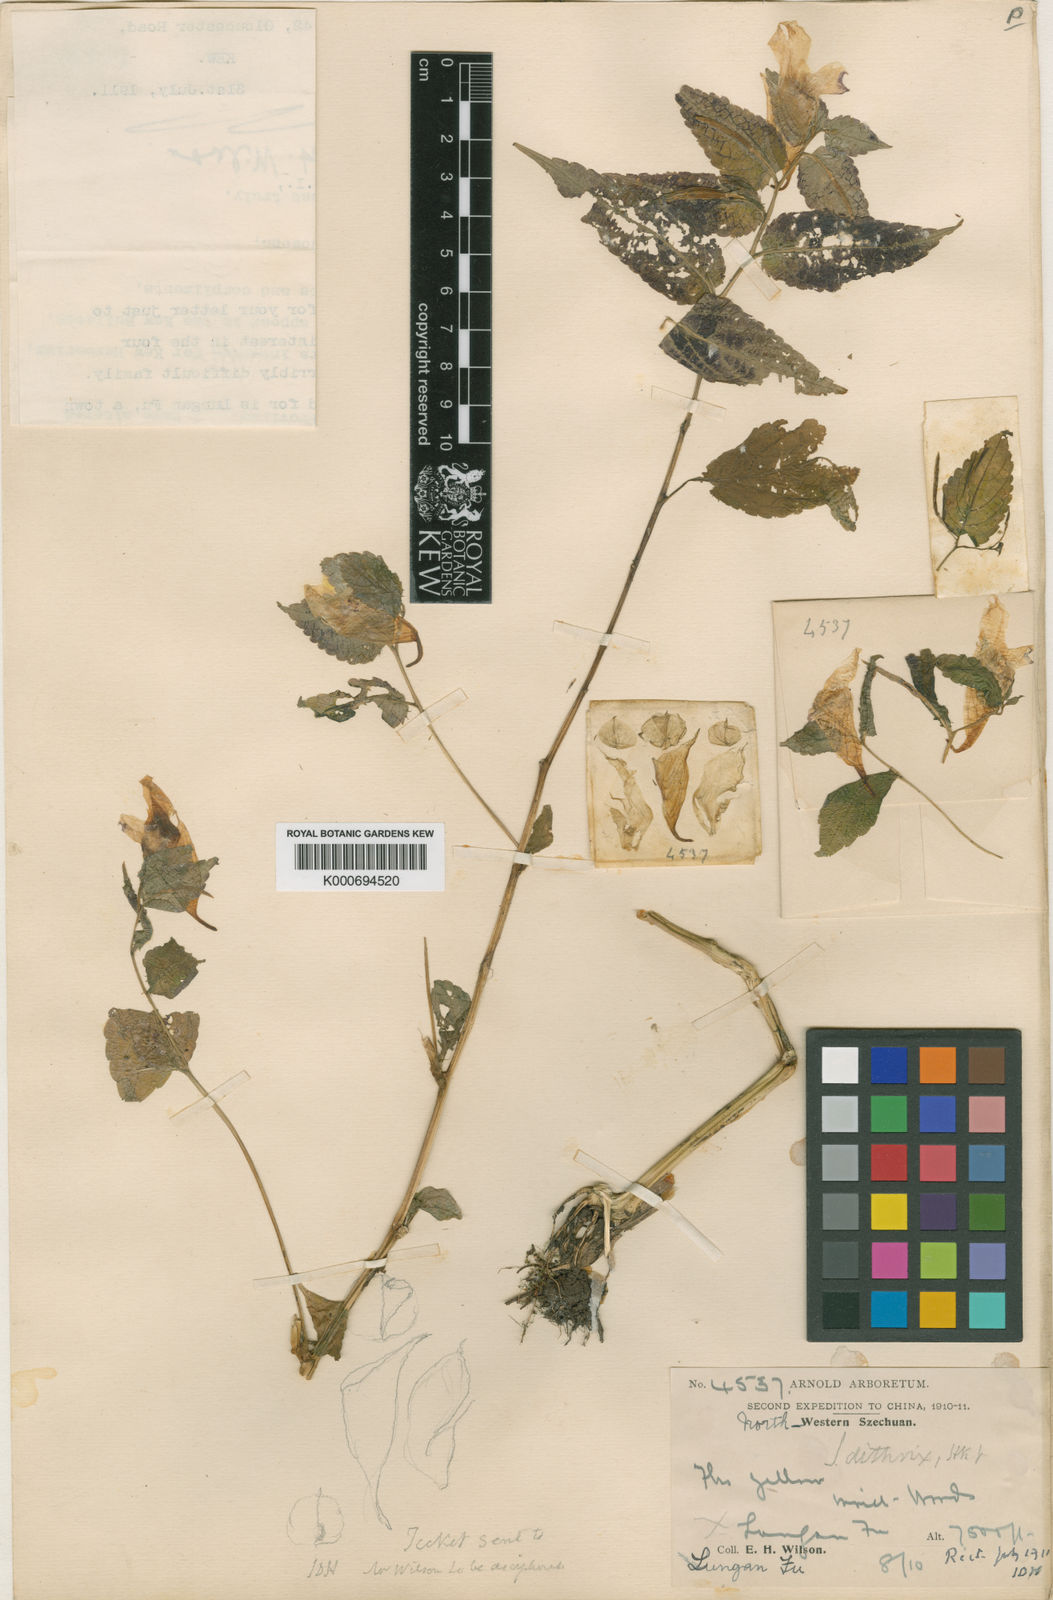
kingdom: Plantae
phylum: Tracheophyta
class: Magnoliopsida
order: Ericales
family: Balsaminaceae
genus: Impatiens
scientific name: Impatiens
